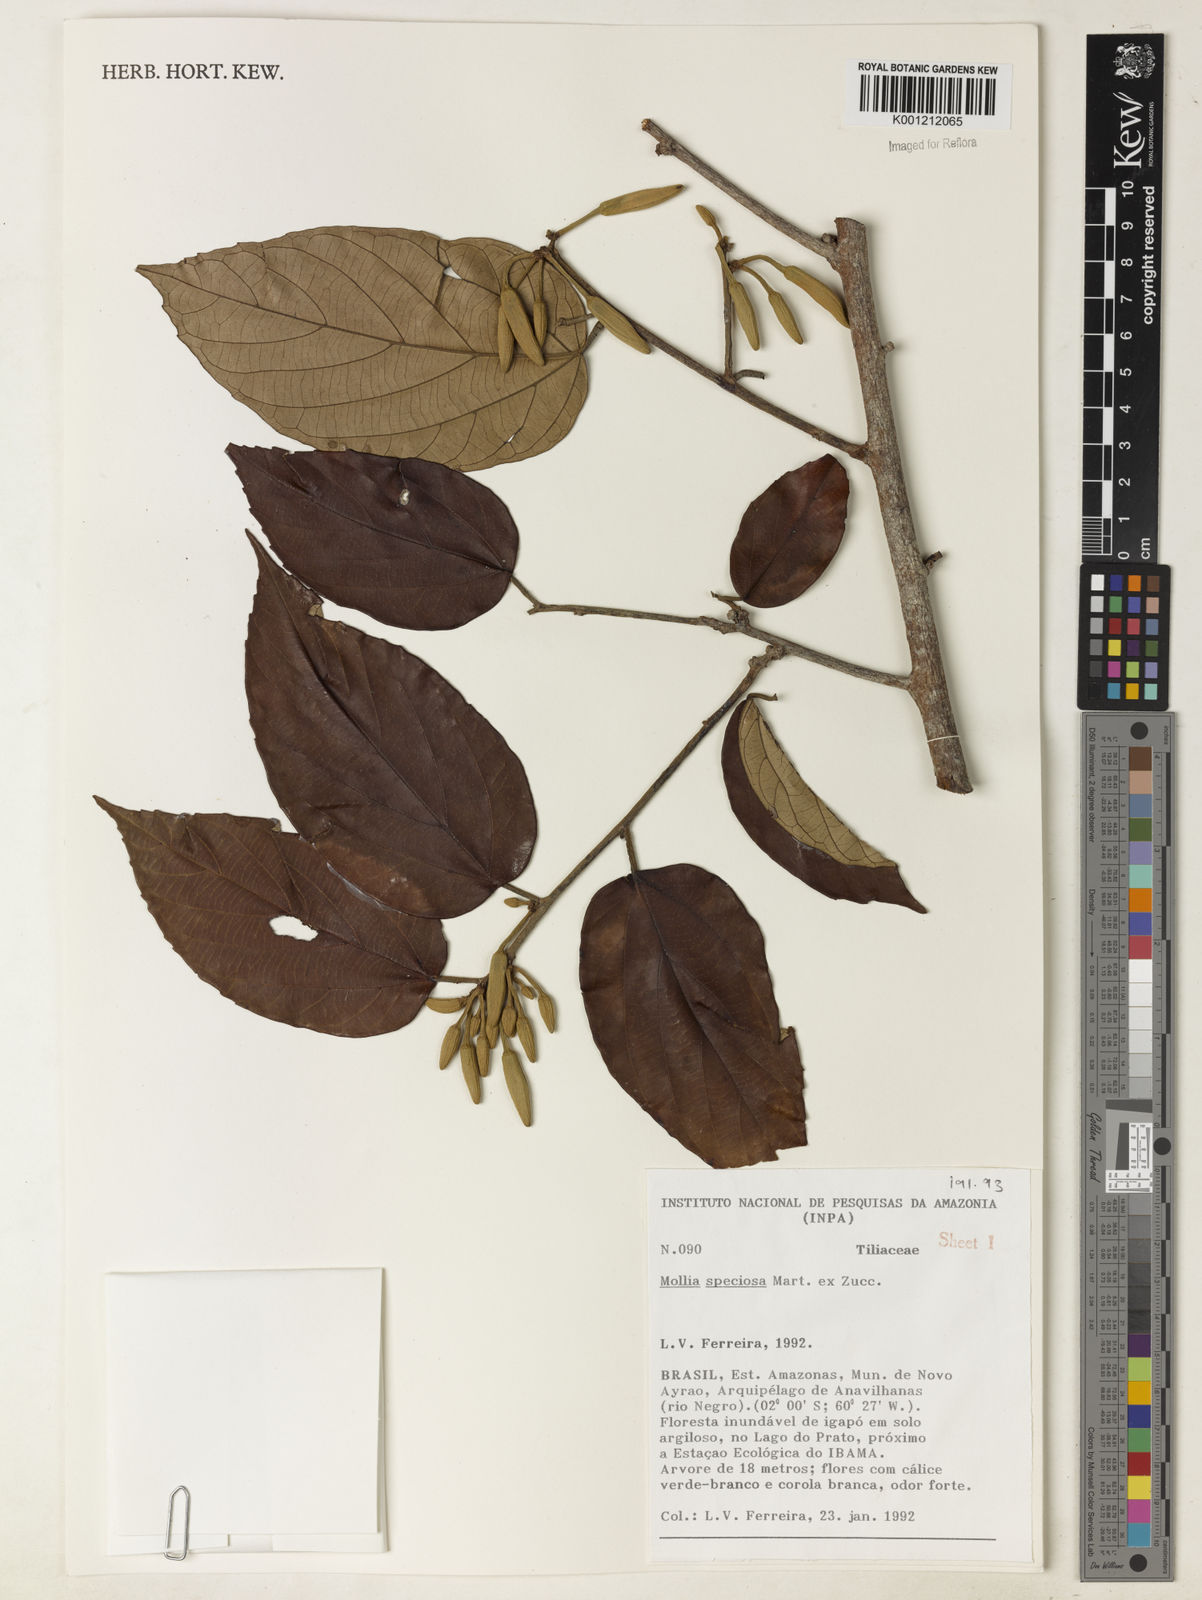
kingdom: Plantae
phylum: Tracheophyta
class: Magnoliopsida
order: Malvales
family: Malvaceae
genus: Mollia
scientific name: Mollia speciosa
